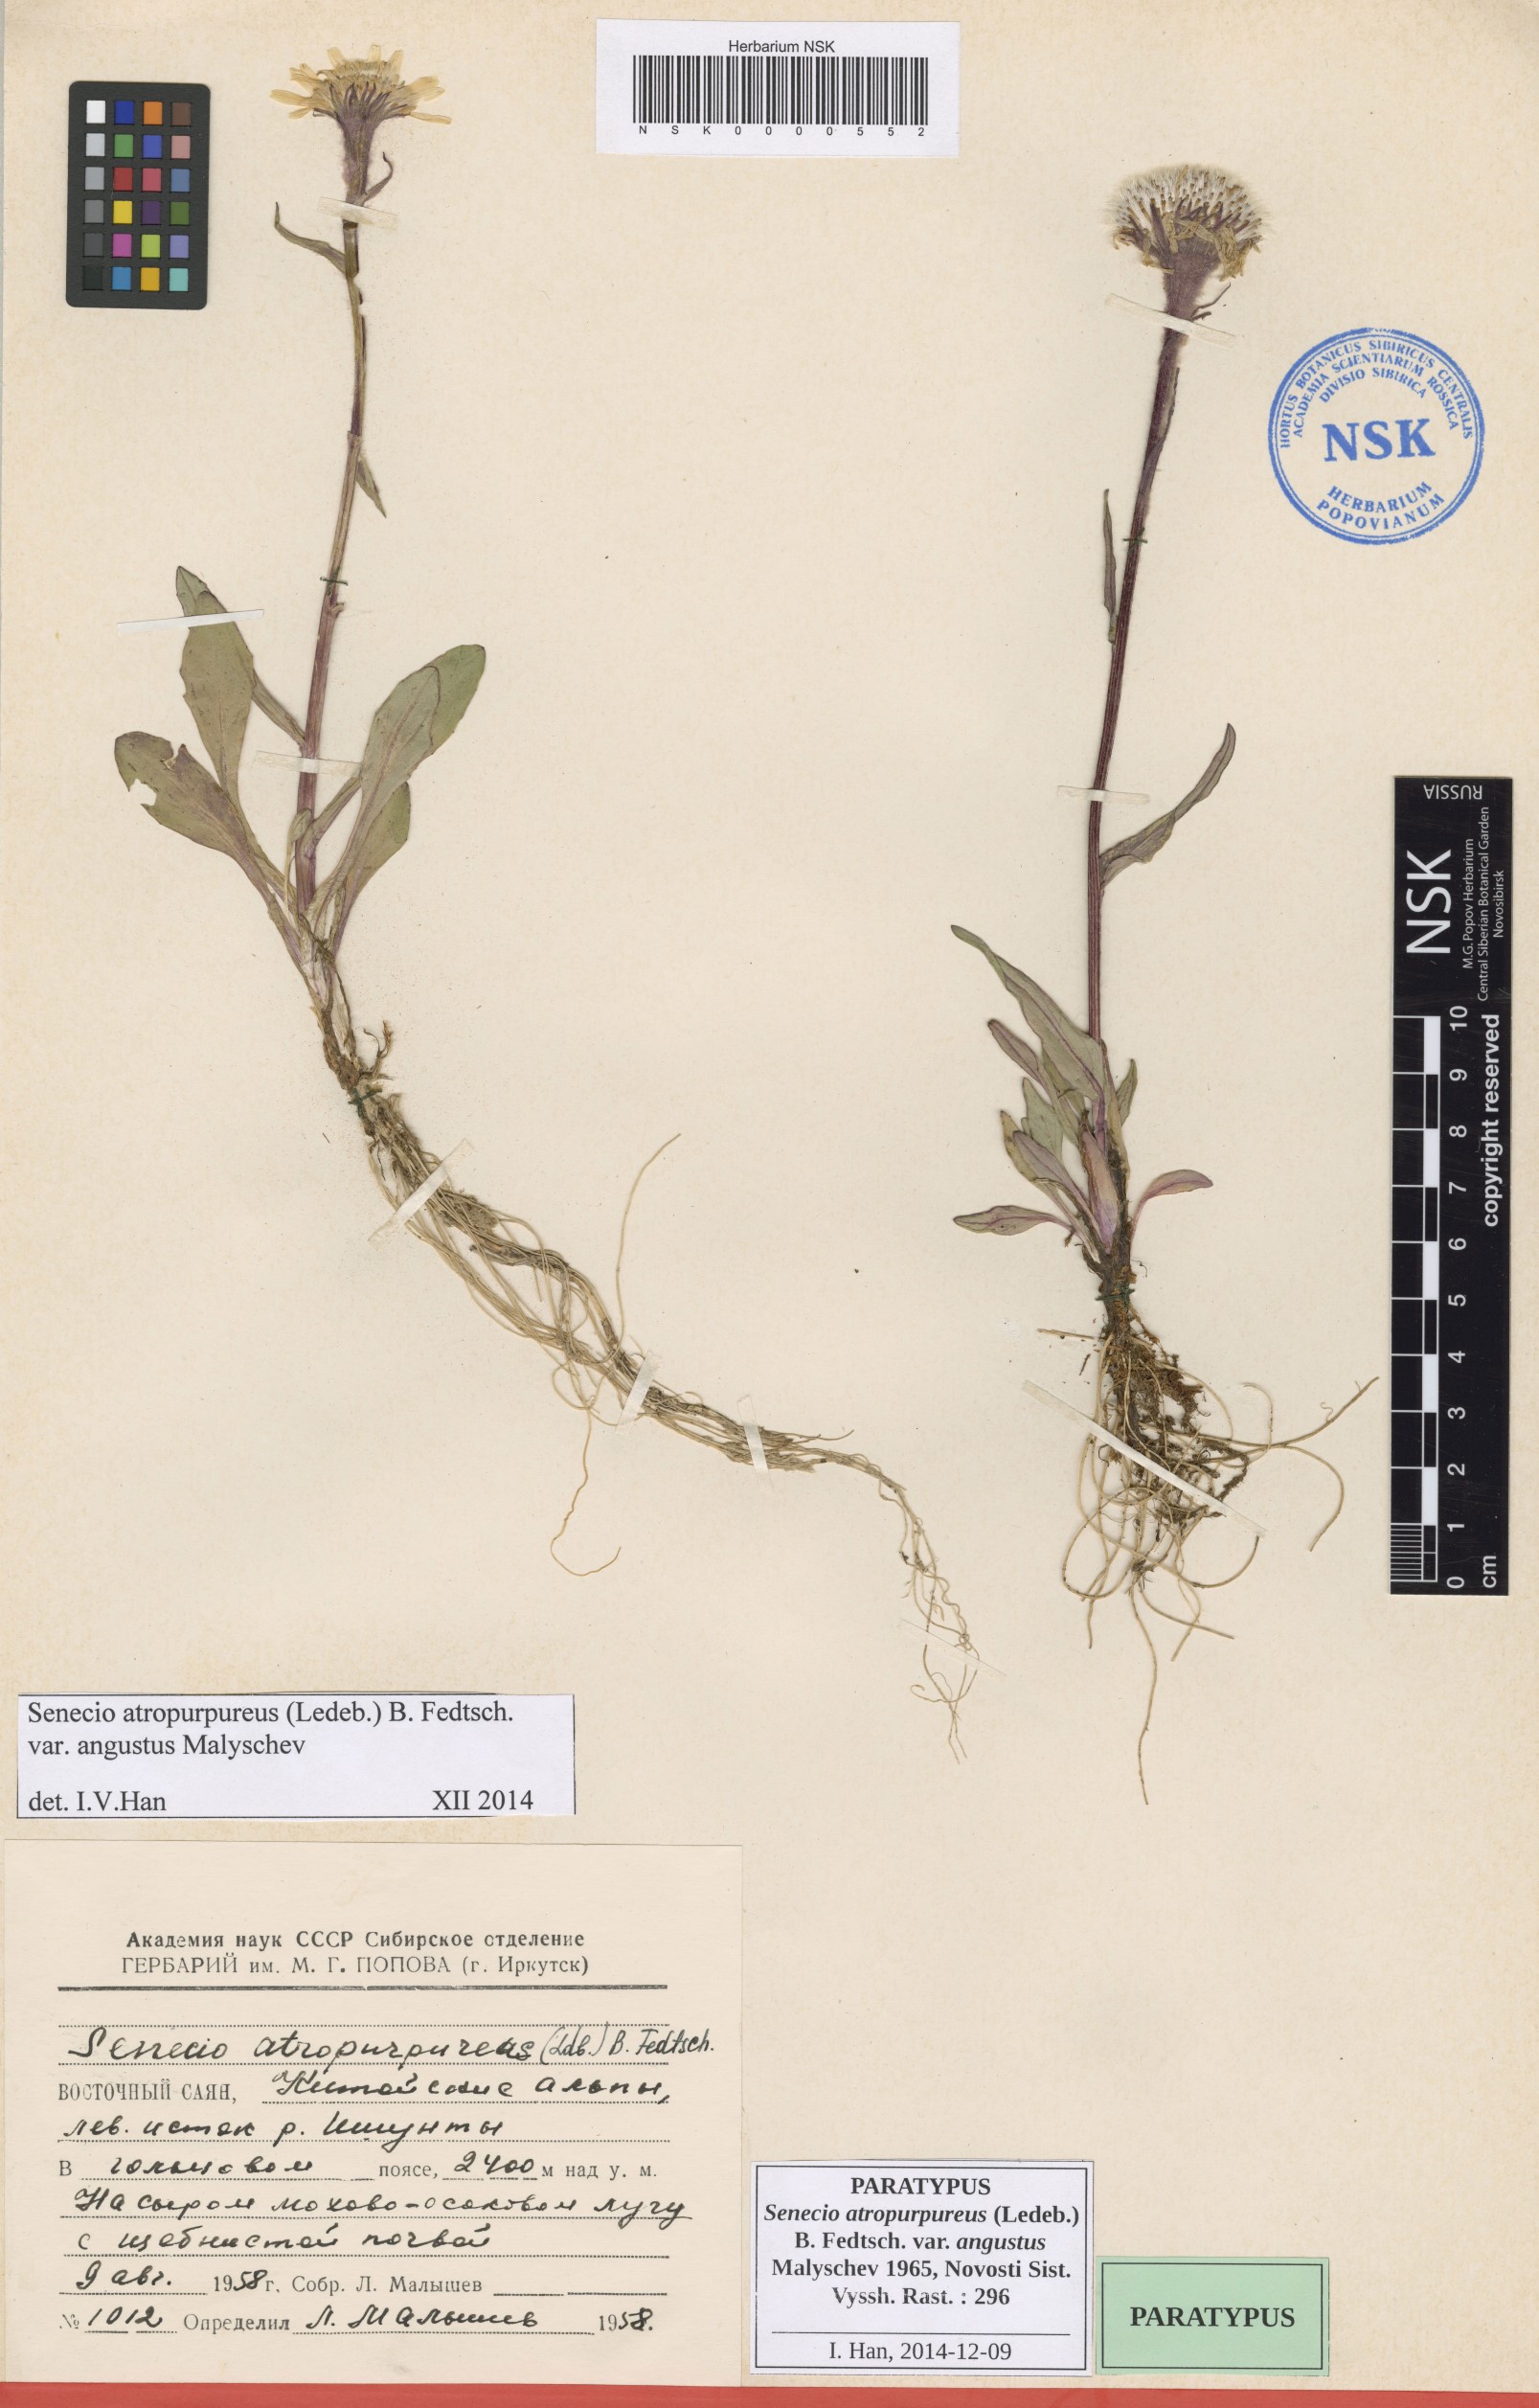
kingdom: Plantae
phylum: Tracheophyta
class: Magnoliopsida
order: Asterales
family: Asteraceae
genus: Tephroseris
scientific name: Tephroseris integrifolia
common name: Field fleawort
